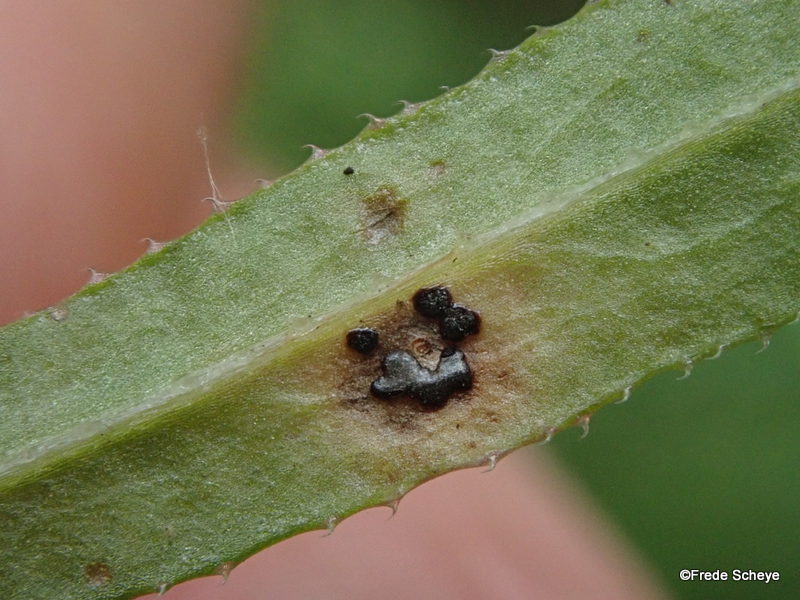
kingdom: Fungi
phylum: Basidiomycota
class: Pucciniomycetes
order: Pucciniales
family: Pucciniaceae
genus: Puccinia
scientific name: Puccinia difformis
